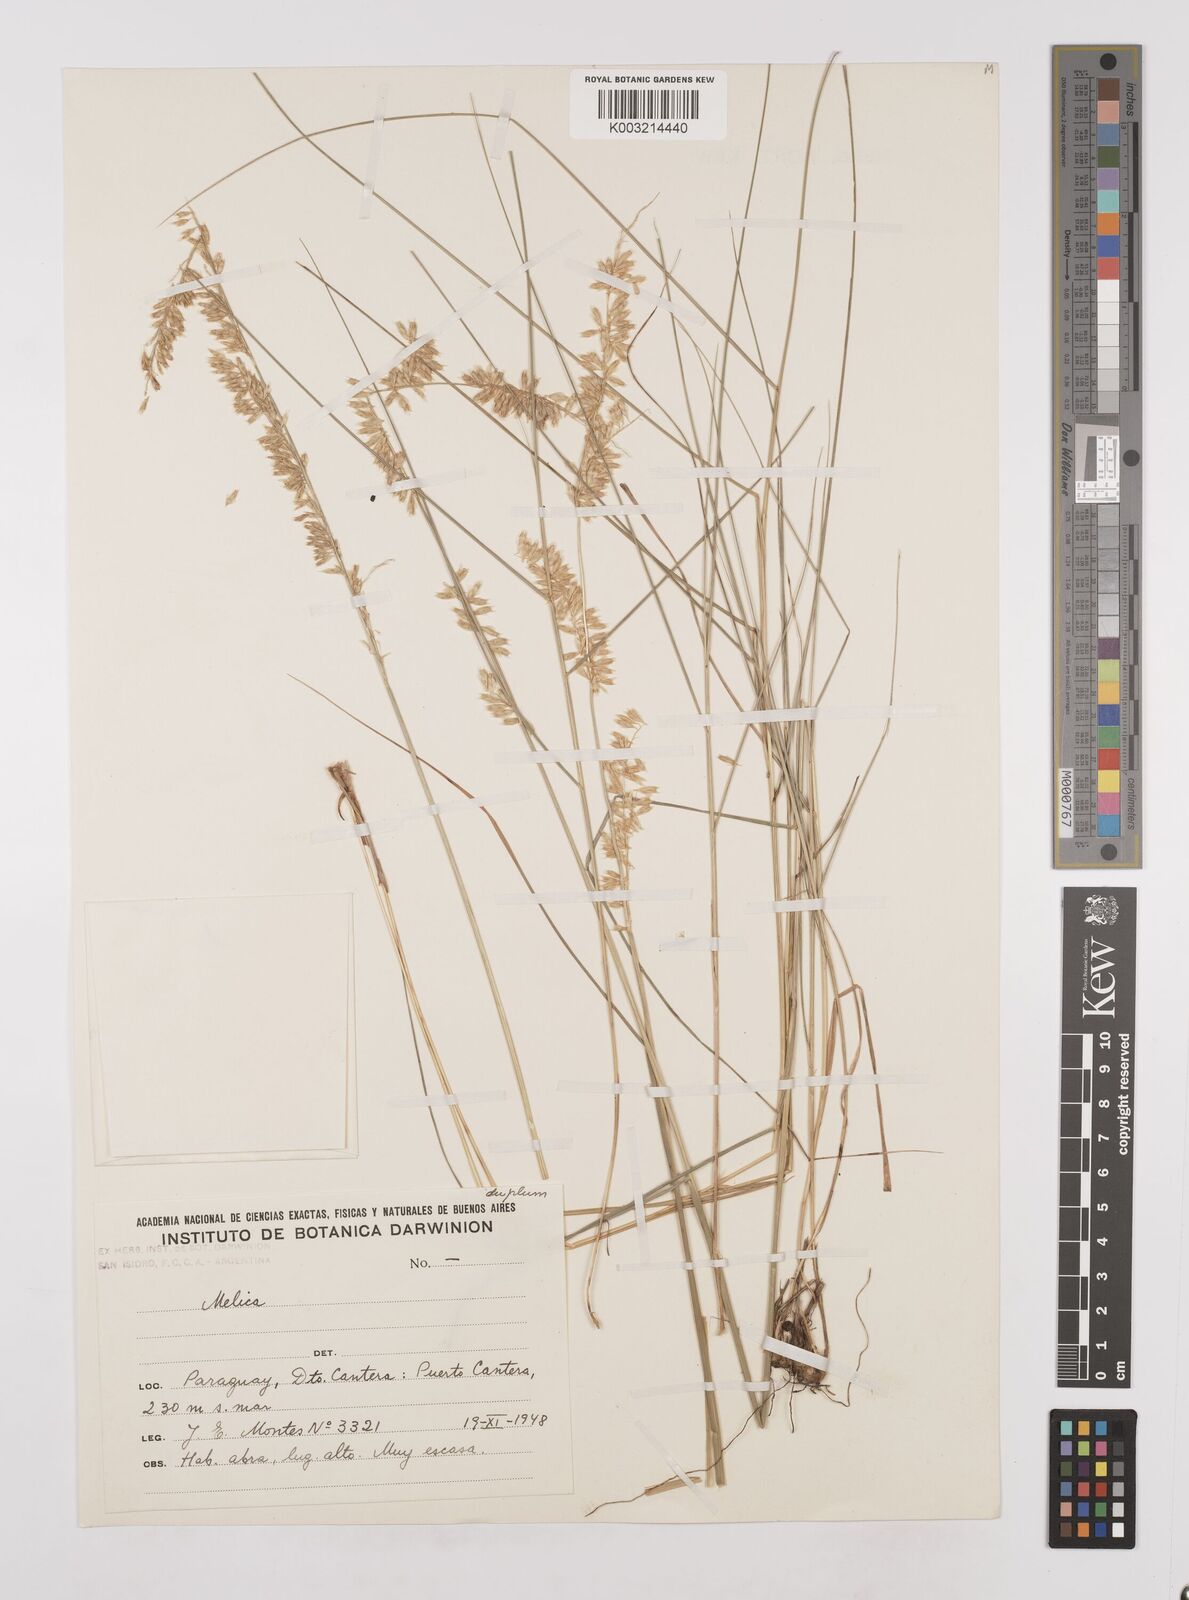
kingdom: Plantae
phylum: Tracheophyta
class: Liliopsida
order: Poales
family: Poaceae
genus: Melica
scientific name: Melica tenuis
